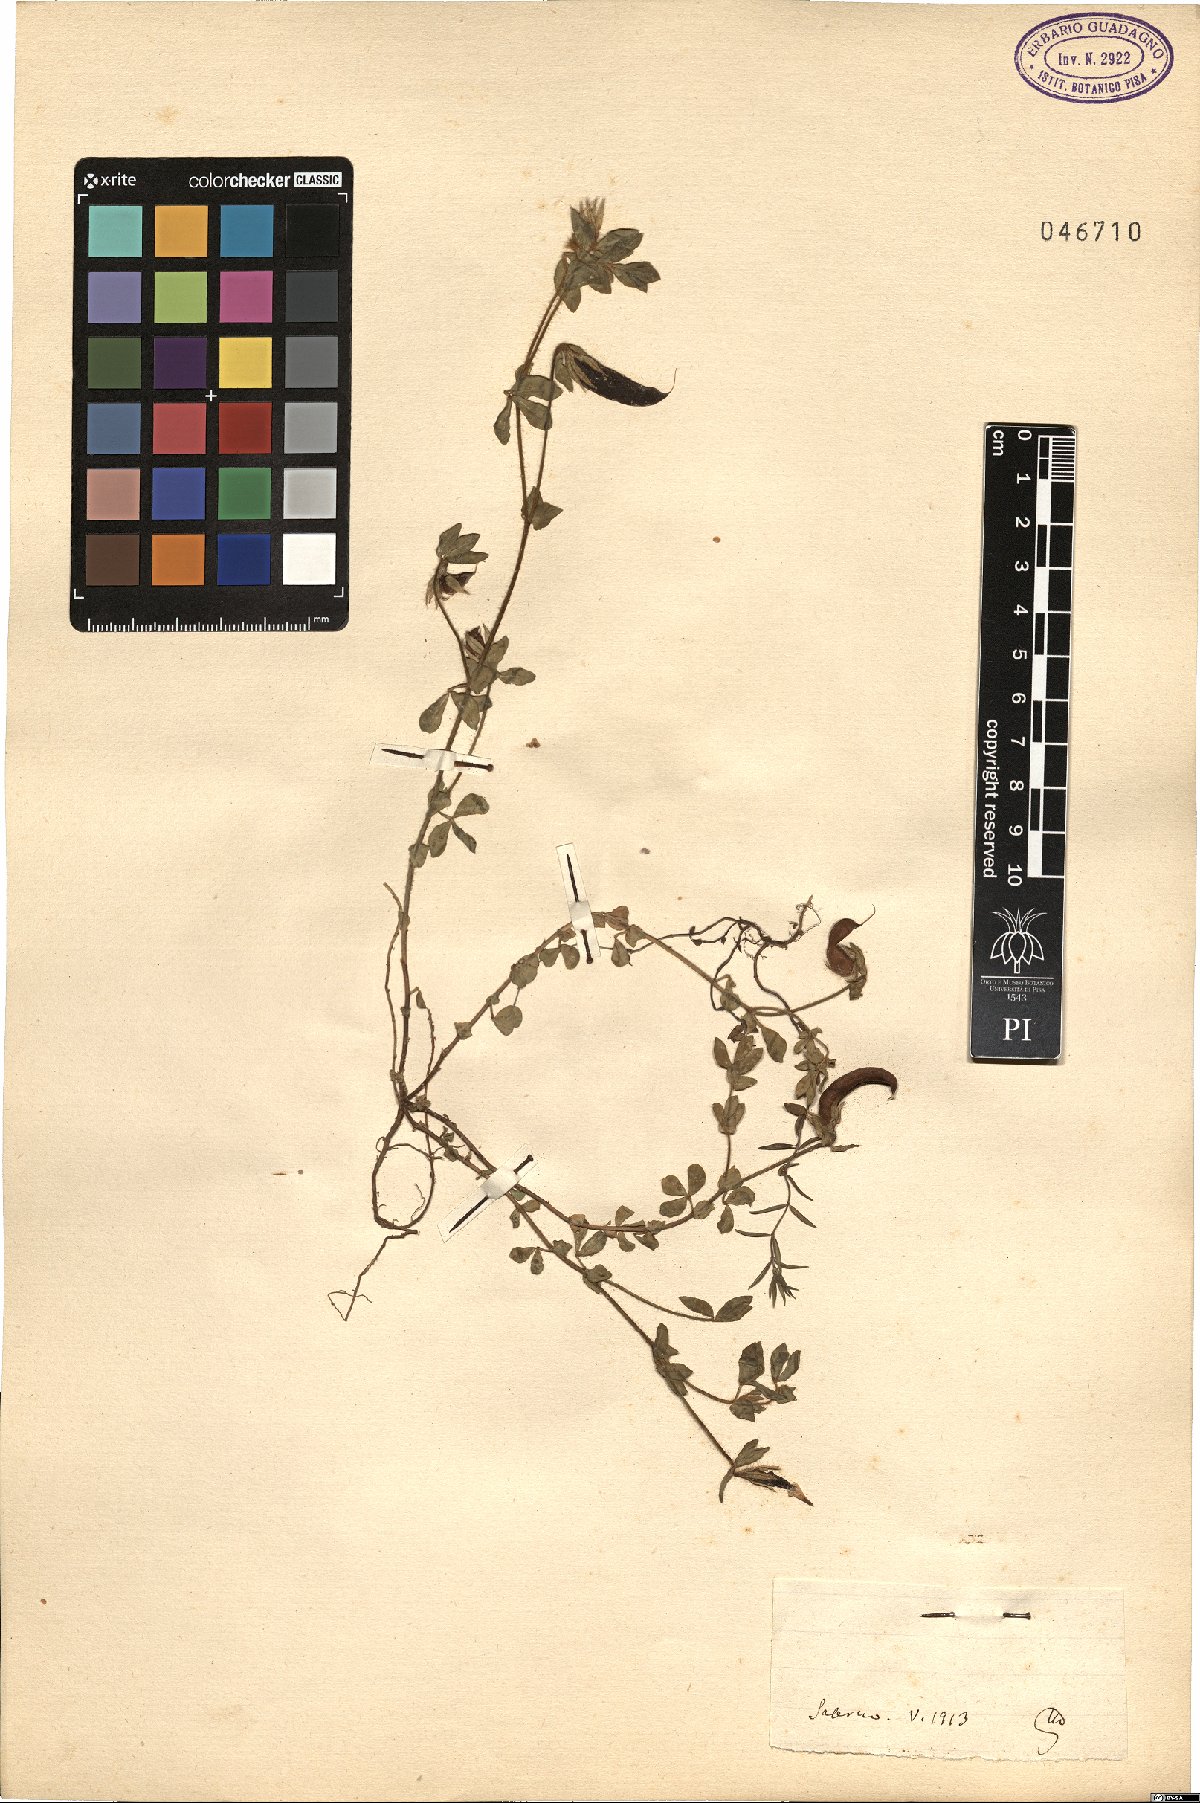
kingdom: Plantae
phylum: Tracheophyta
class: Magnoliopsida
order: Fabales
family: Fabaceae
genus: Lotus
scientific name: Lotus
